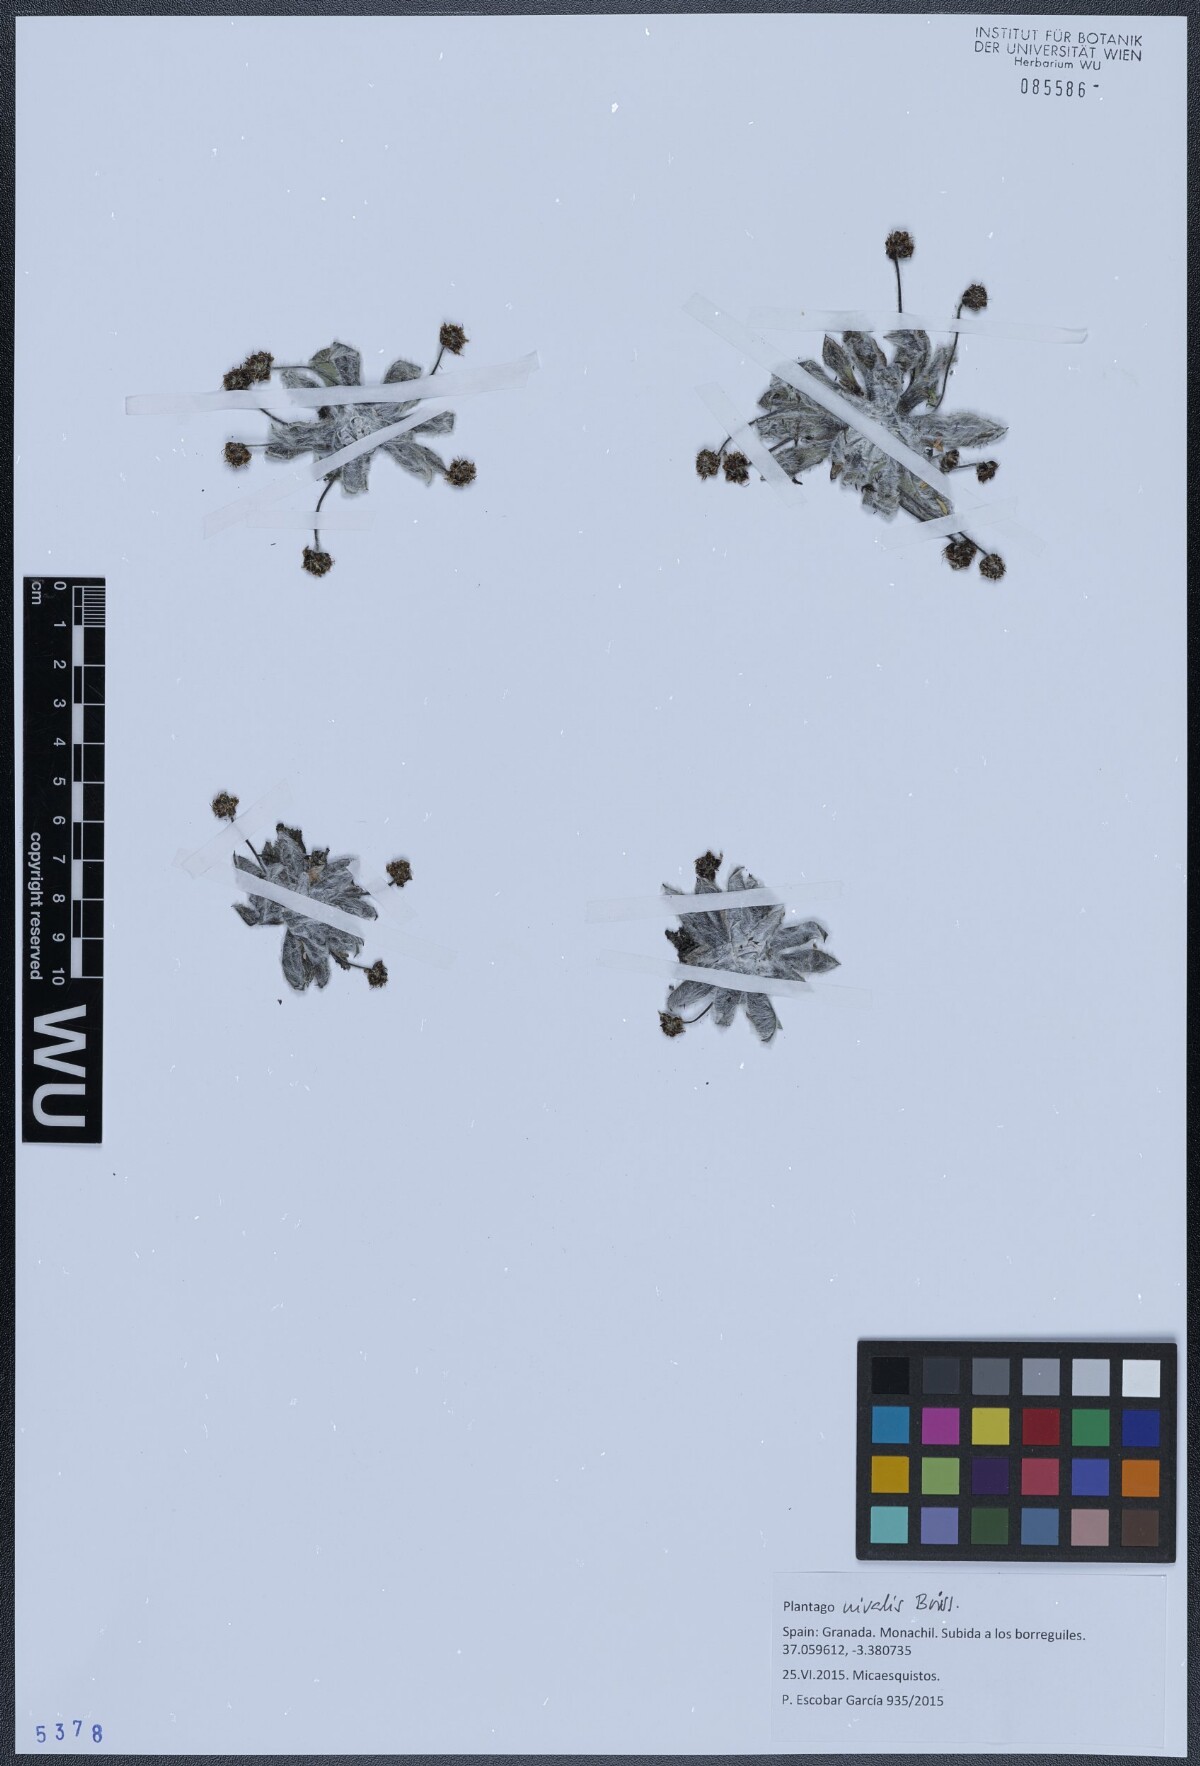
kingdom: Plantae
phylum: Tracheophyta
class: Magnoliopsida
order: Lamiales
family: Plantaginaceae
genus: Plantago
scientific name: Plantago nivalis
